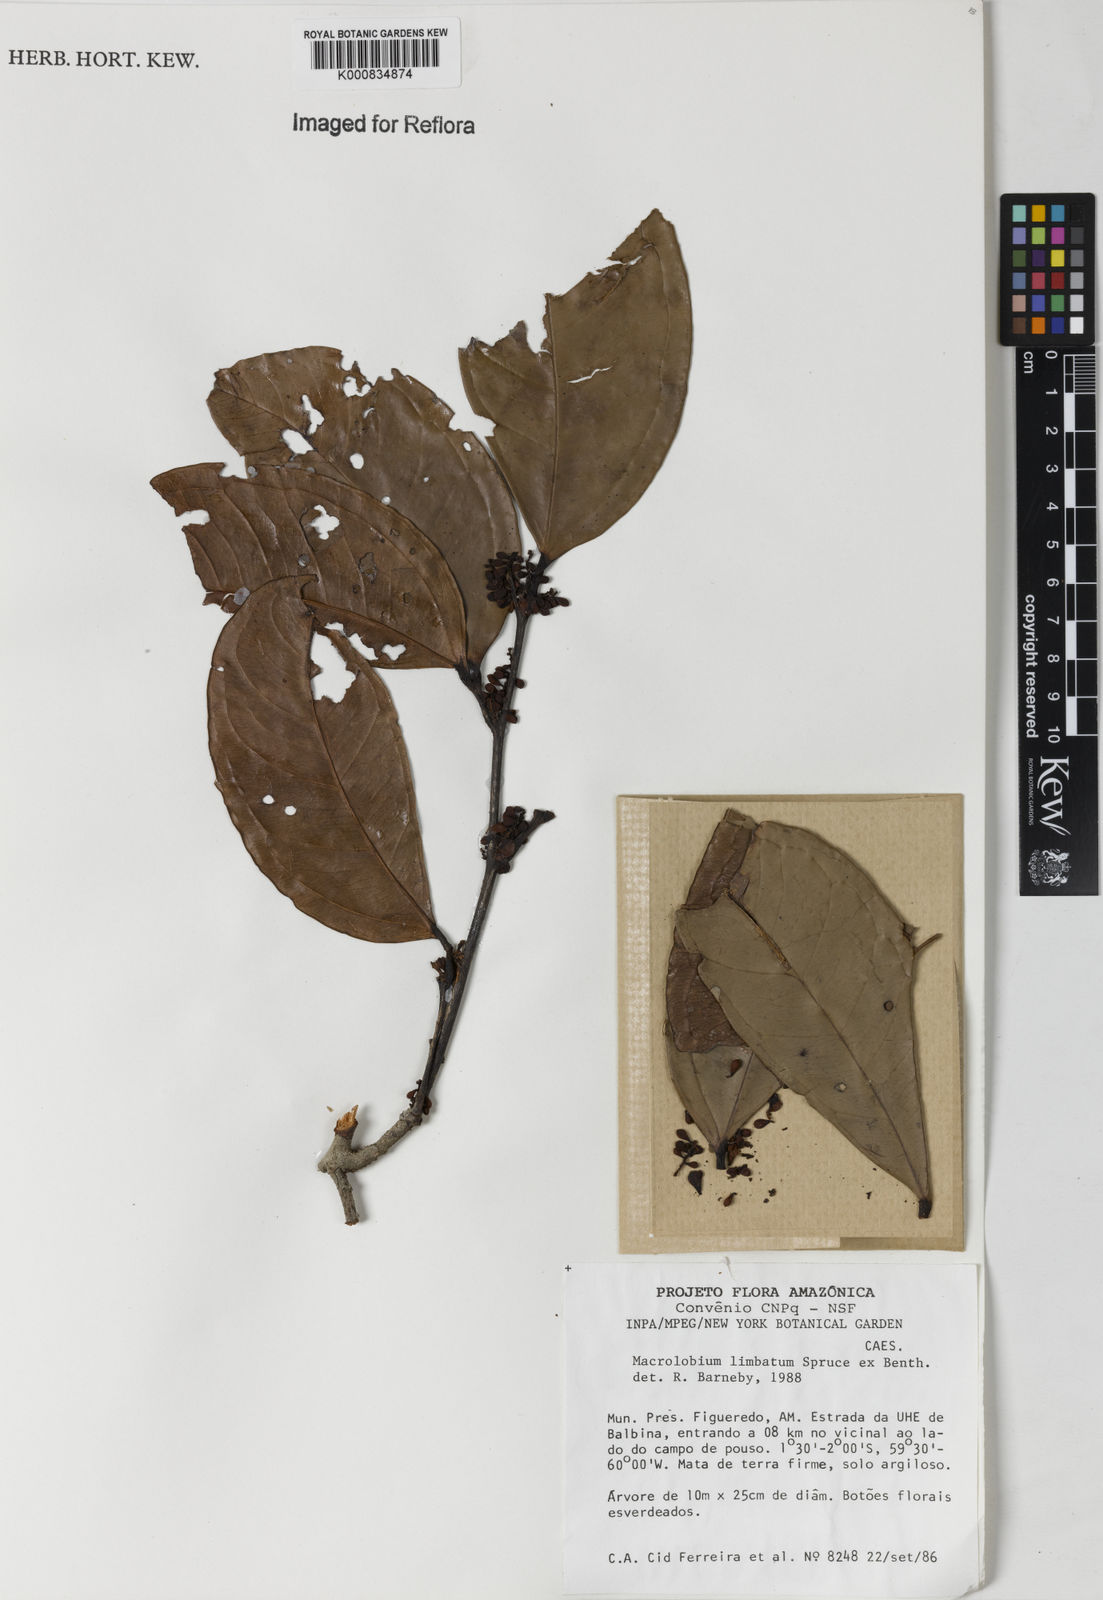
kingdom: Plantae
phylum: Tracheophyta
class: Magnoliopsida
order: Fabales
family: Fabaceae
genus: Macrolobium
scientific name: Macrolobium limbatum
